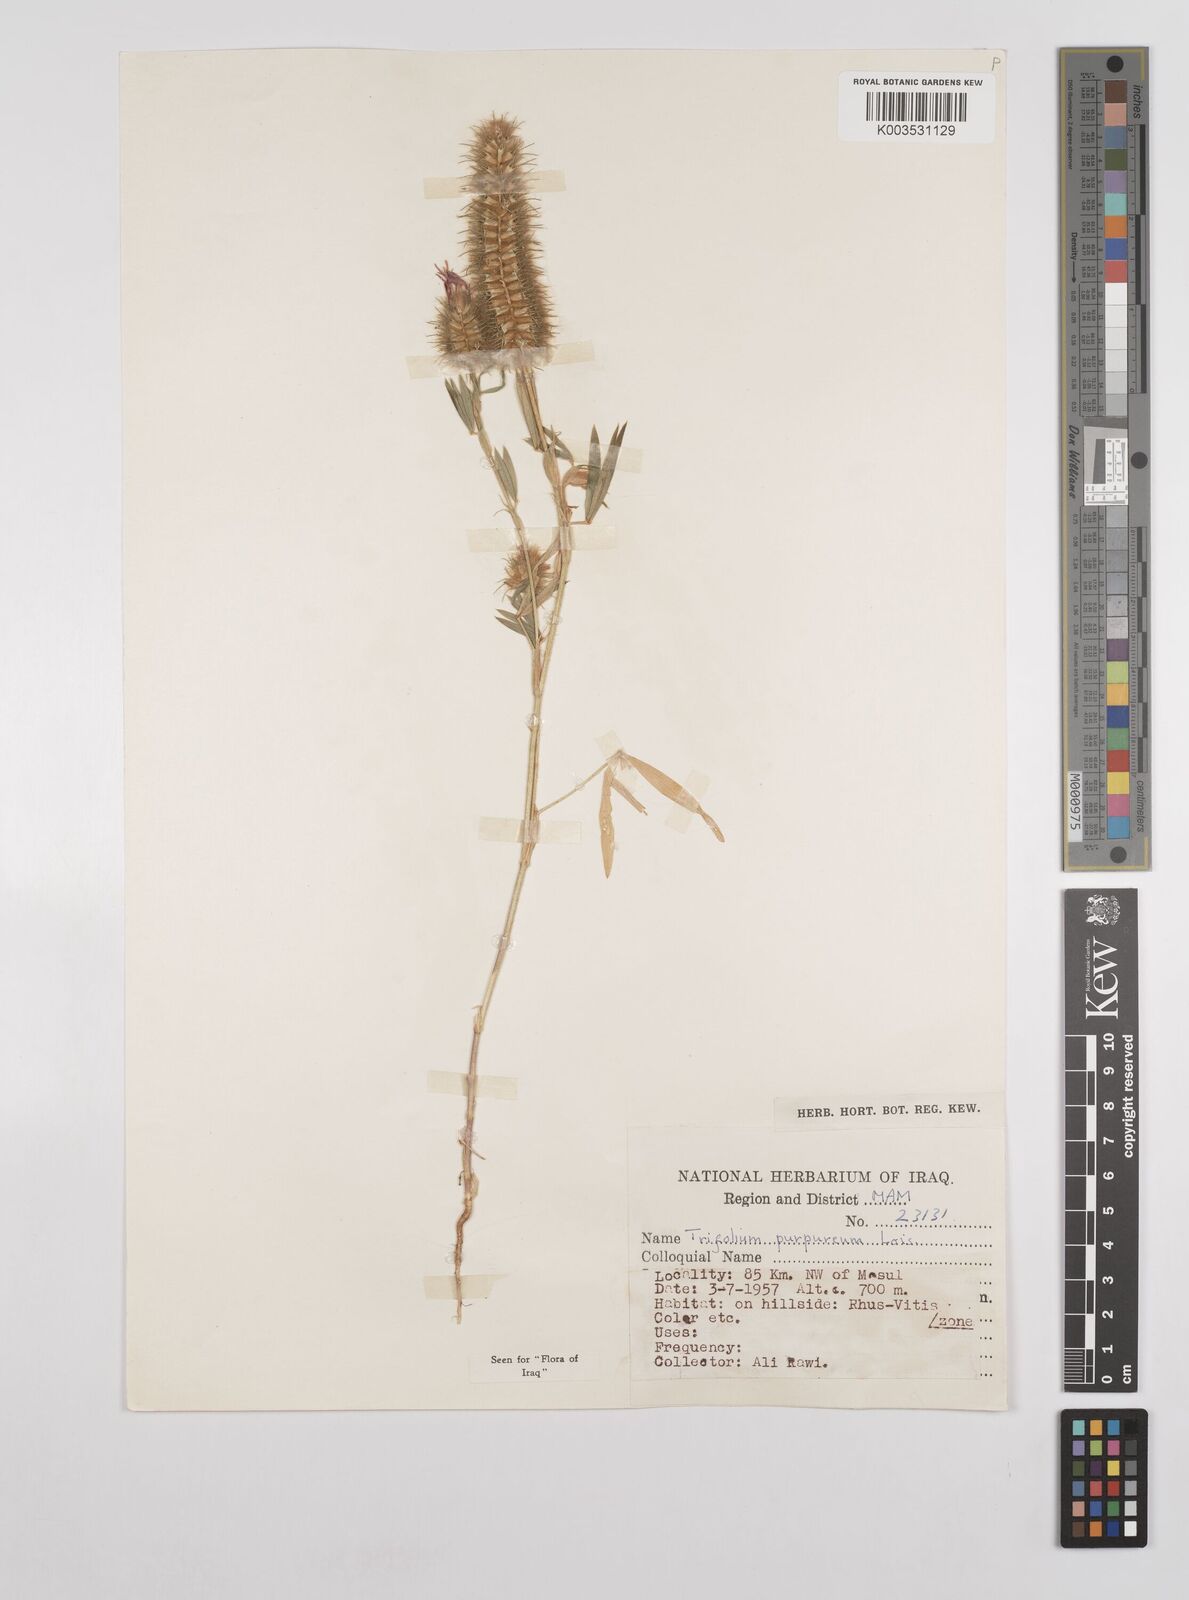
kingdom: Plantae
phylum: Tracheophyta
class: Magnoliopsida
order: Fabales
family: Fabaceae
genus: Trifolium
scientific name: Trifolium purpureum
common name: Purple clover
